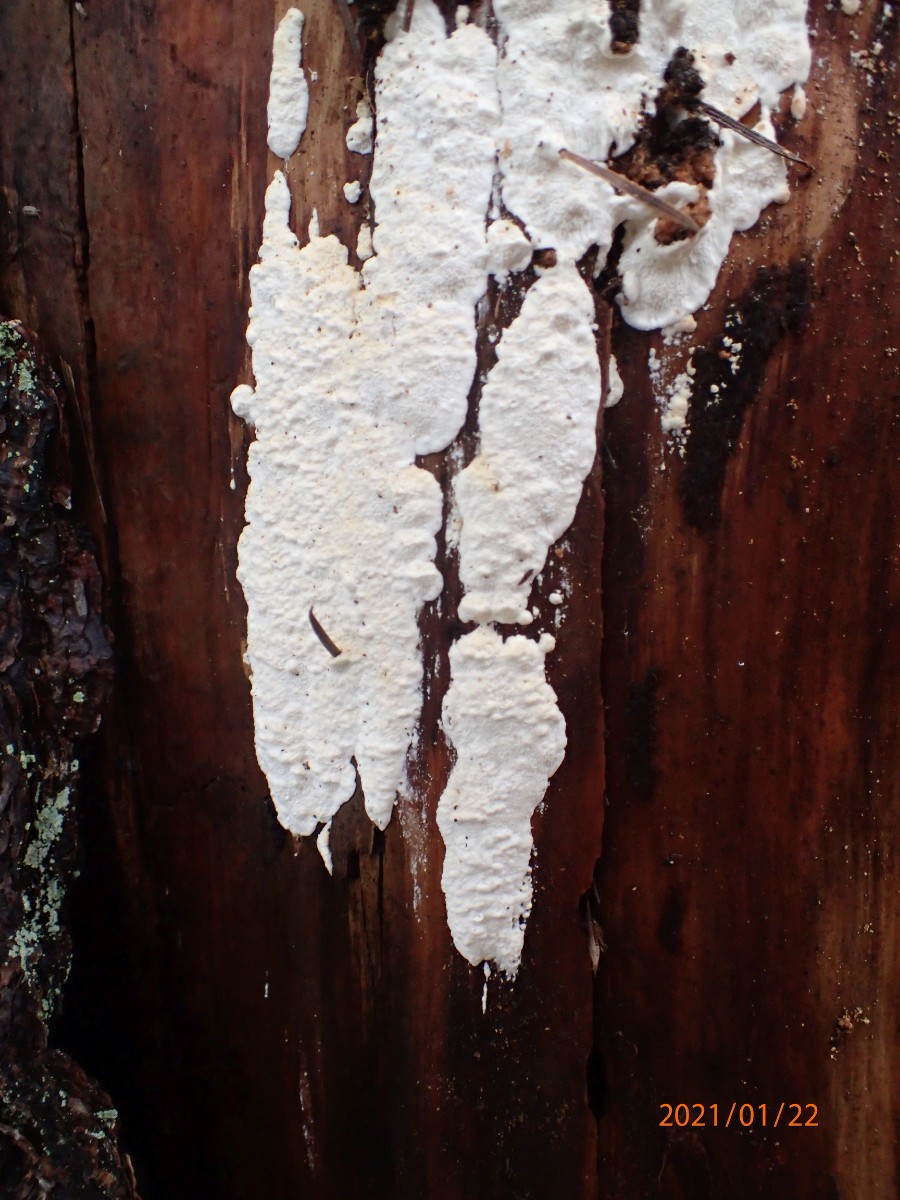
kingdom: Fungi
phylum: Basidiomycota
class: Agaricomycetes
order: Polyporales
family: Fomitopsidaceae
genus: Neoantrodia
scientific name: Neoantrodia serialis
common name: række-sejporesvamp
